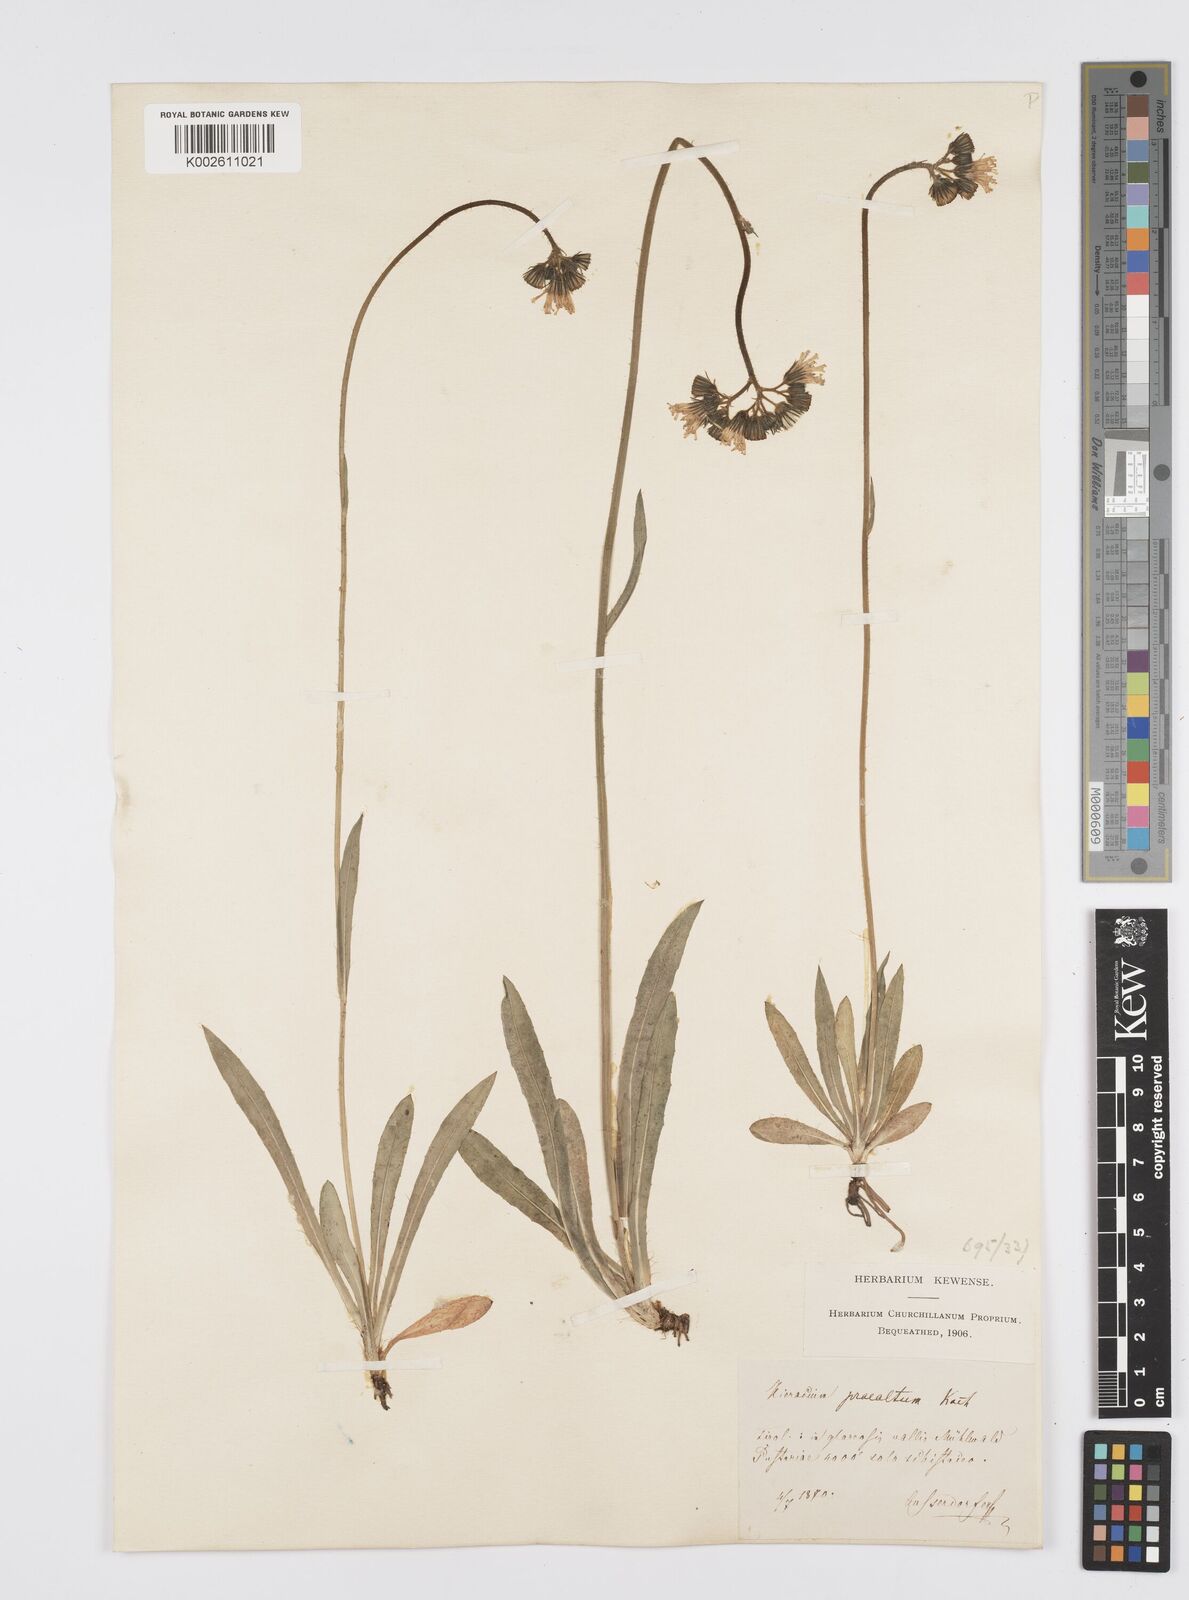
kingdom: Plantae
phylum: Tracheophyta
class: Magnoliopsida
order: Asterales
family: Asteraceae
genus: Pilosella
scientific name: Pilosella piloselloides
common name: Glaucous king-devil
